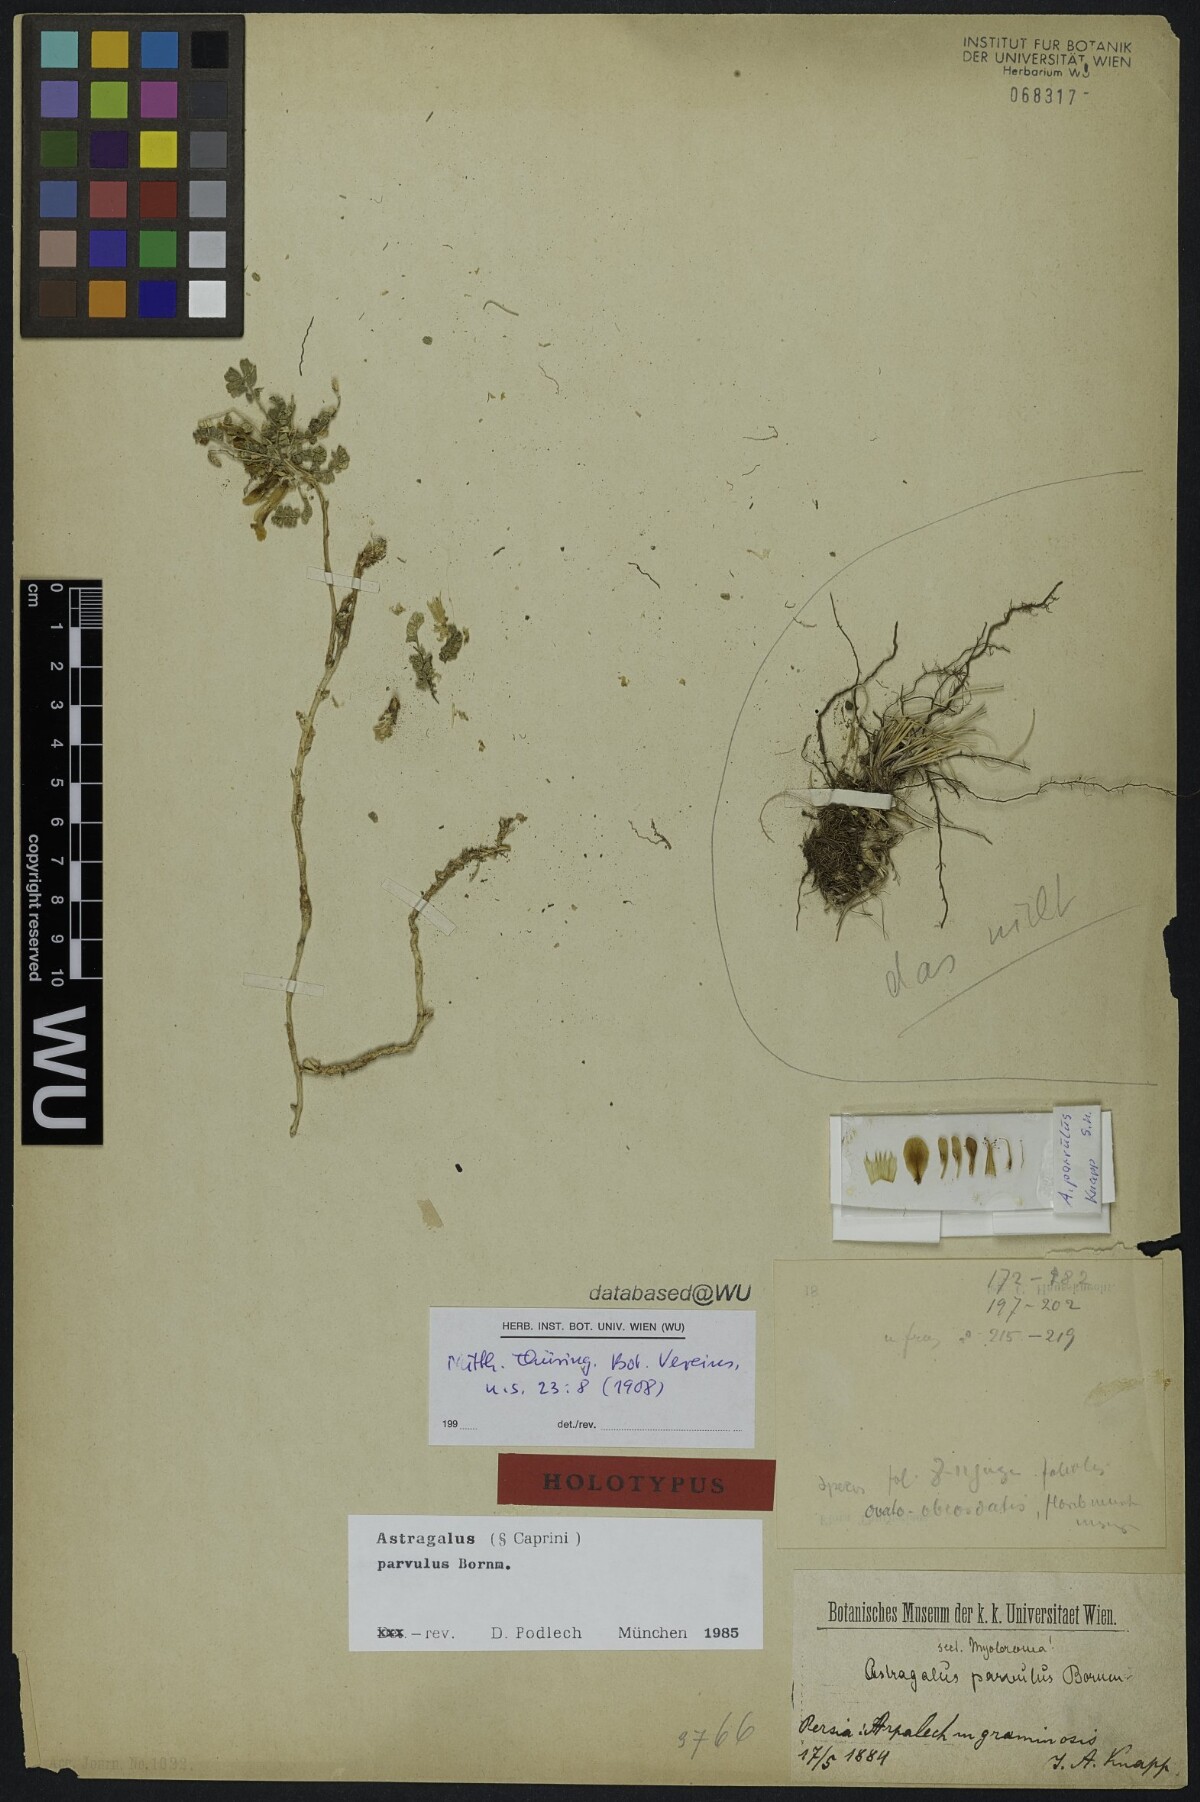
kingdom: Plantae
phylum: Tracheophyta
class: Magnoliopsida
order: Fabales
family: Fabaceae
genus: Astragalus
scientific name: Astragalus parvulus
